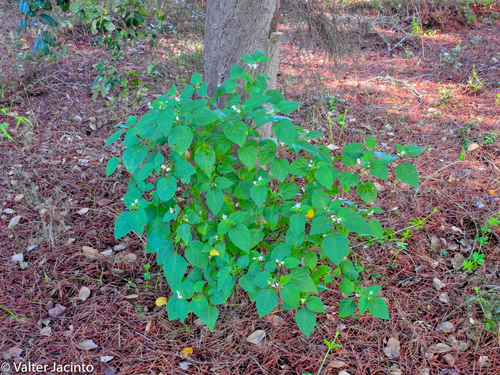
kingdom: Plantae
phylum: Tracheophyta
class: Magnoliopsida
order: Solanales
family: Solanaceae
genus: Solanum
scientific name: Solanum nigrum
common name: Black nightshade
